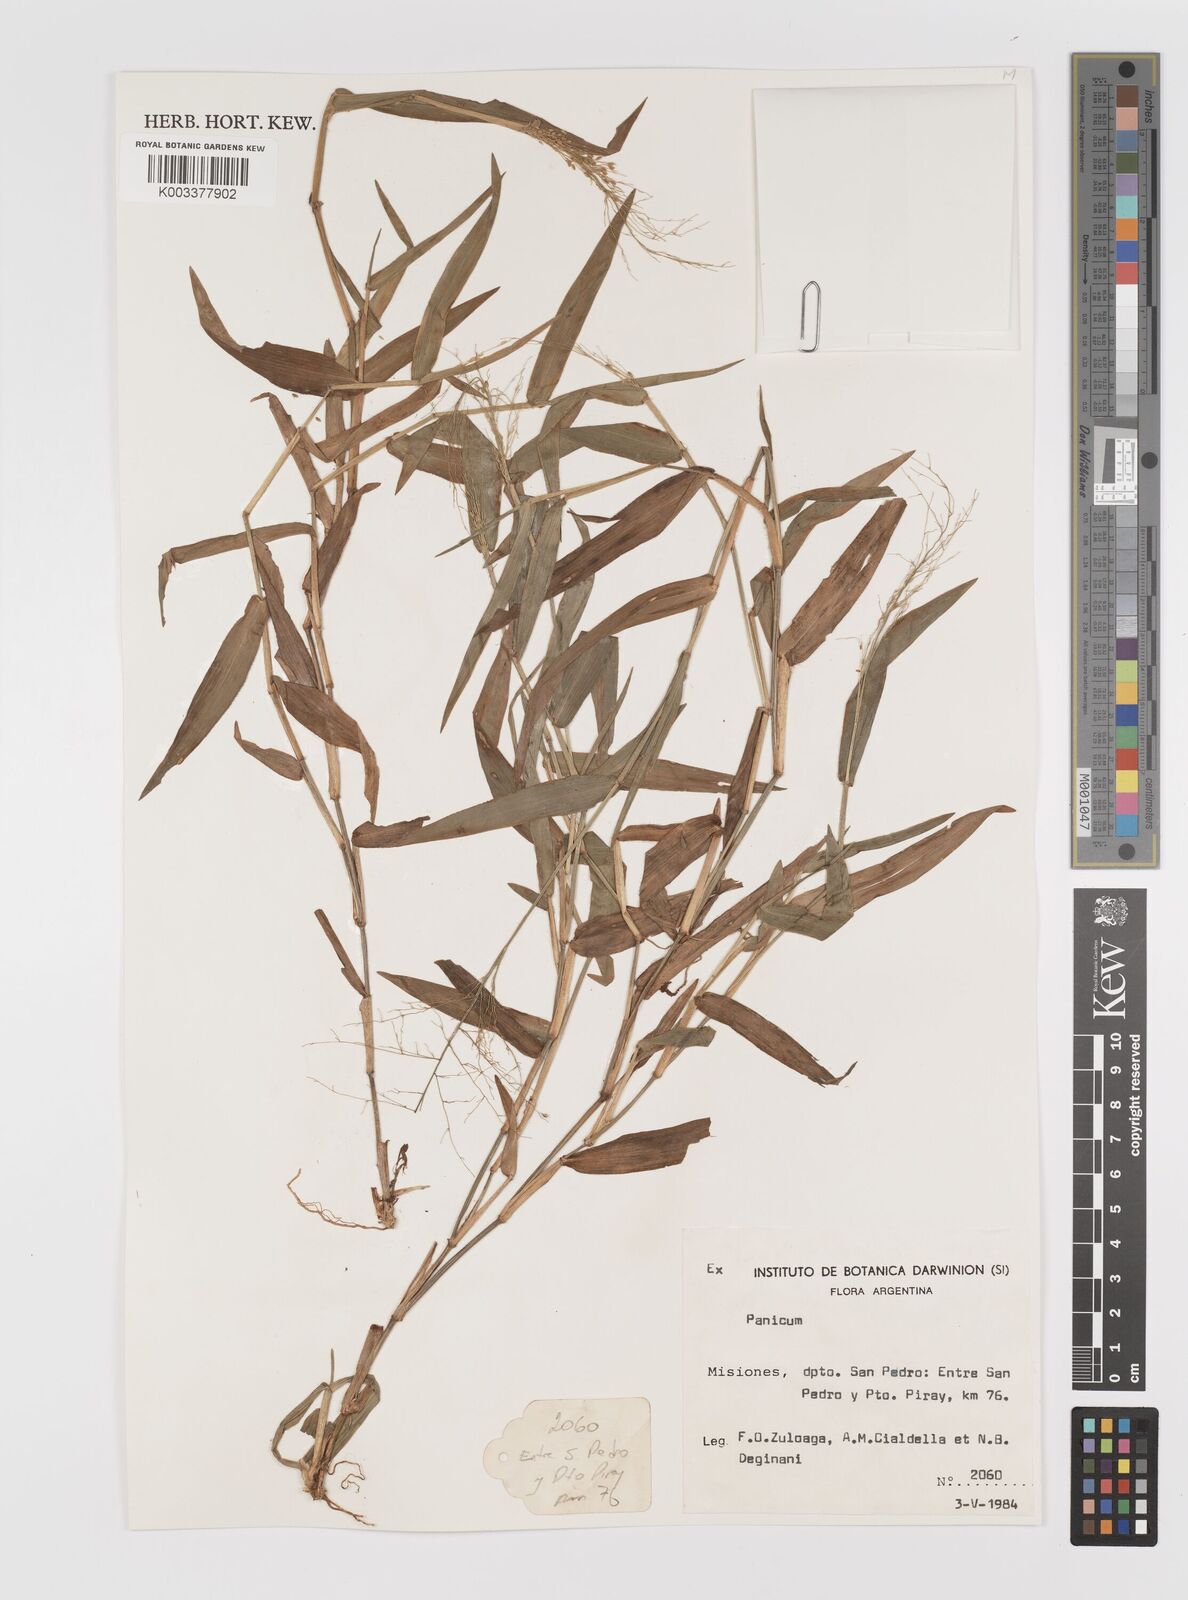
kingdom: Plantae
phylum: Tracheophyta
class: Liliopsida
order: Poales
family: Poaceae
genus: Panicum
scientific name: Panicum
